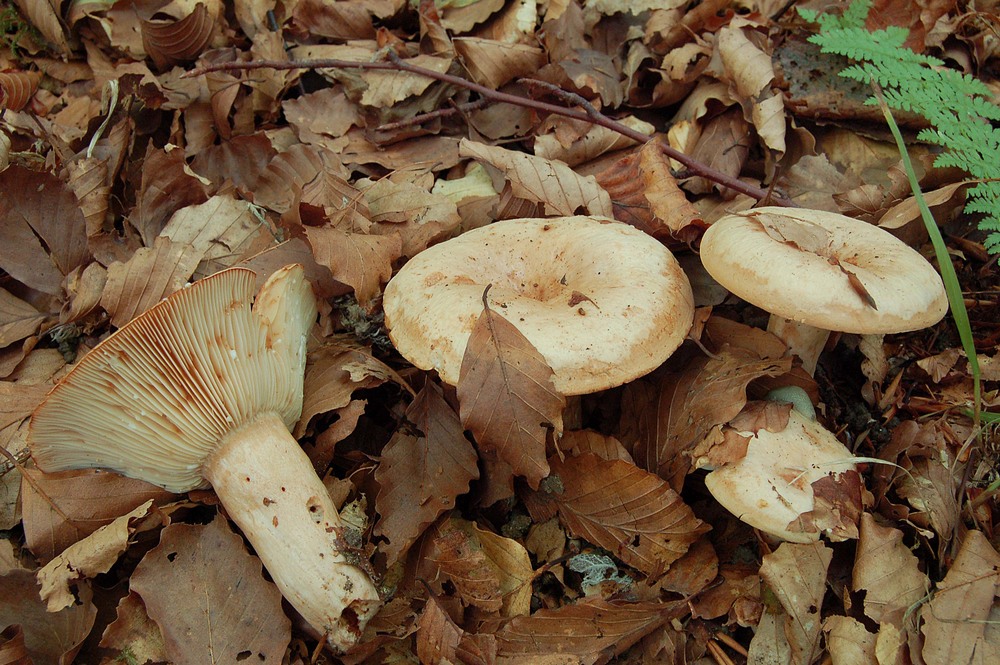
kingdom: Fungi
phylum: Basidiomycota
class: Agaricomycetes
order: Russulales
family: Russulaceae
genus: Lactarius
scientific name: Lactarius pallidus
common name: bleg mælkehat
